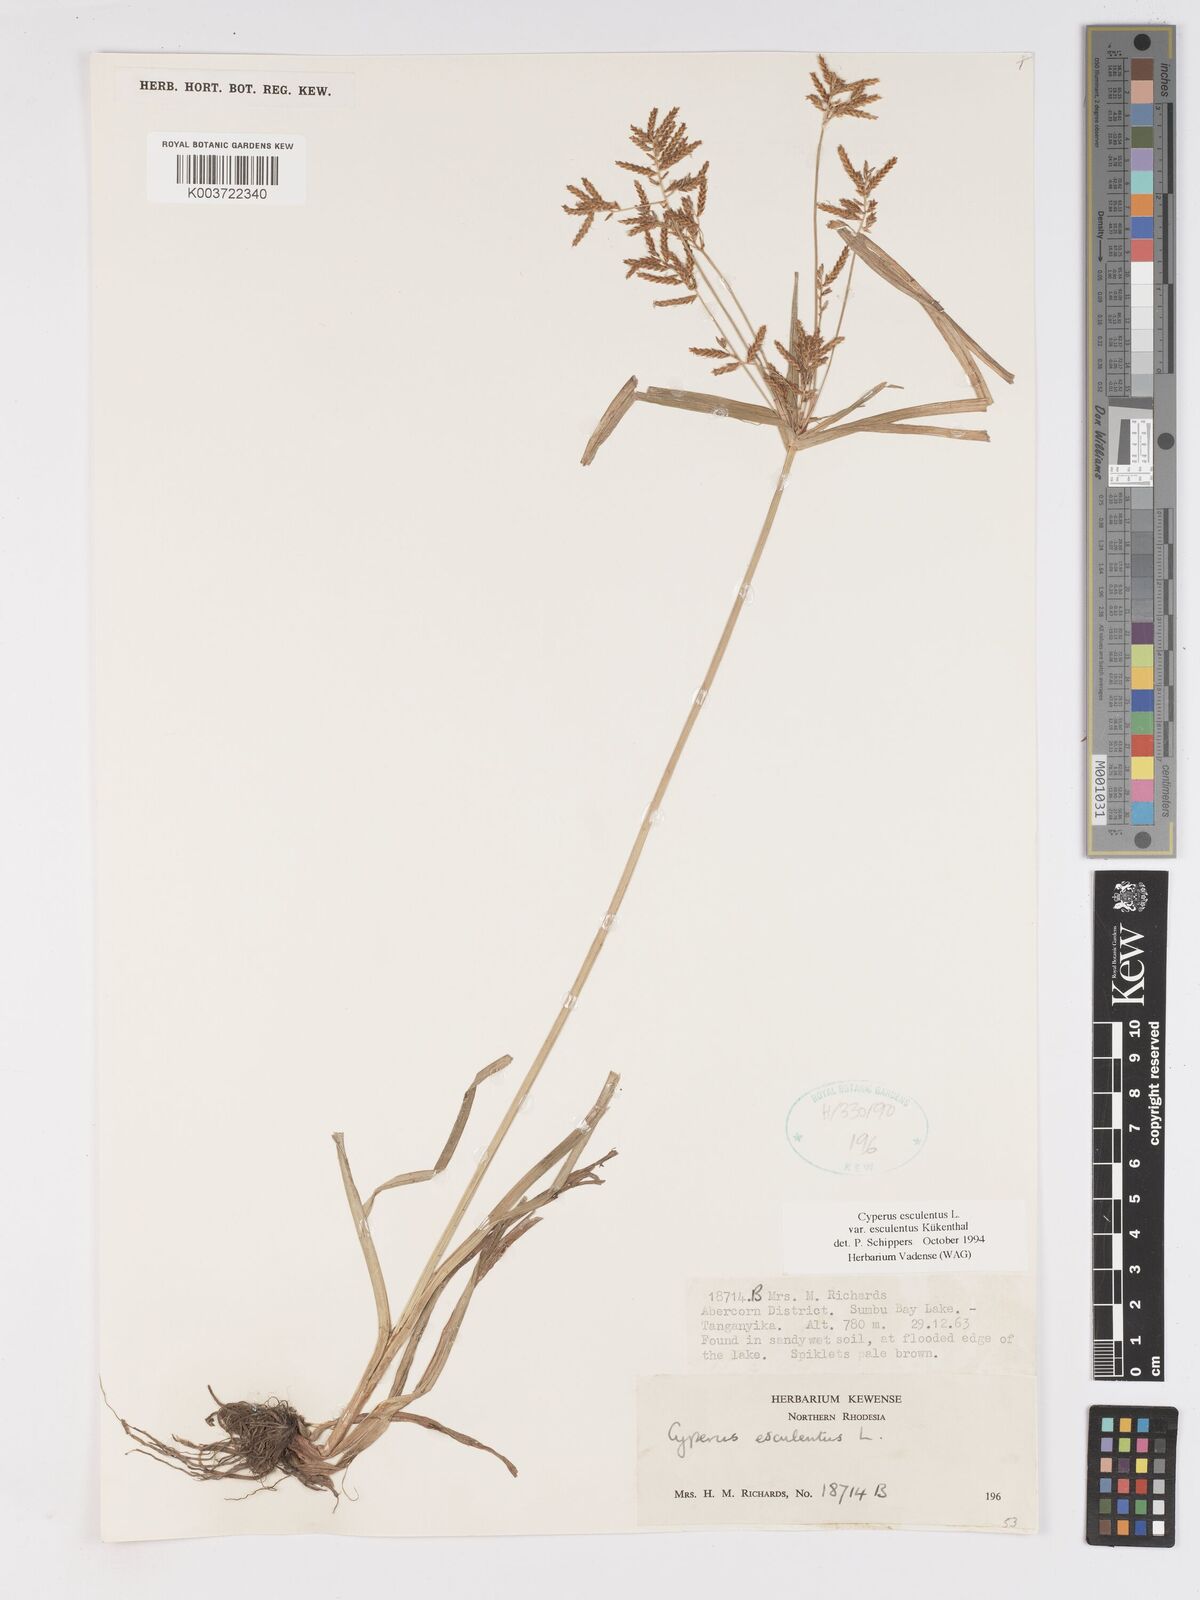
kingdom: Plantae
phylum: Tracheophyta
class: Liliopsida
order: Poales
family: Cyperaceae
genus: Cyperus
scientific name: Cyperus esculentus
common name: Yellow nutsedge
